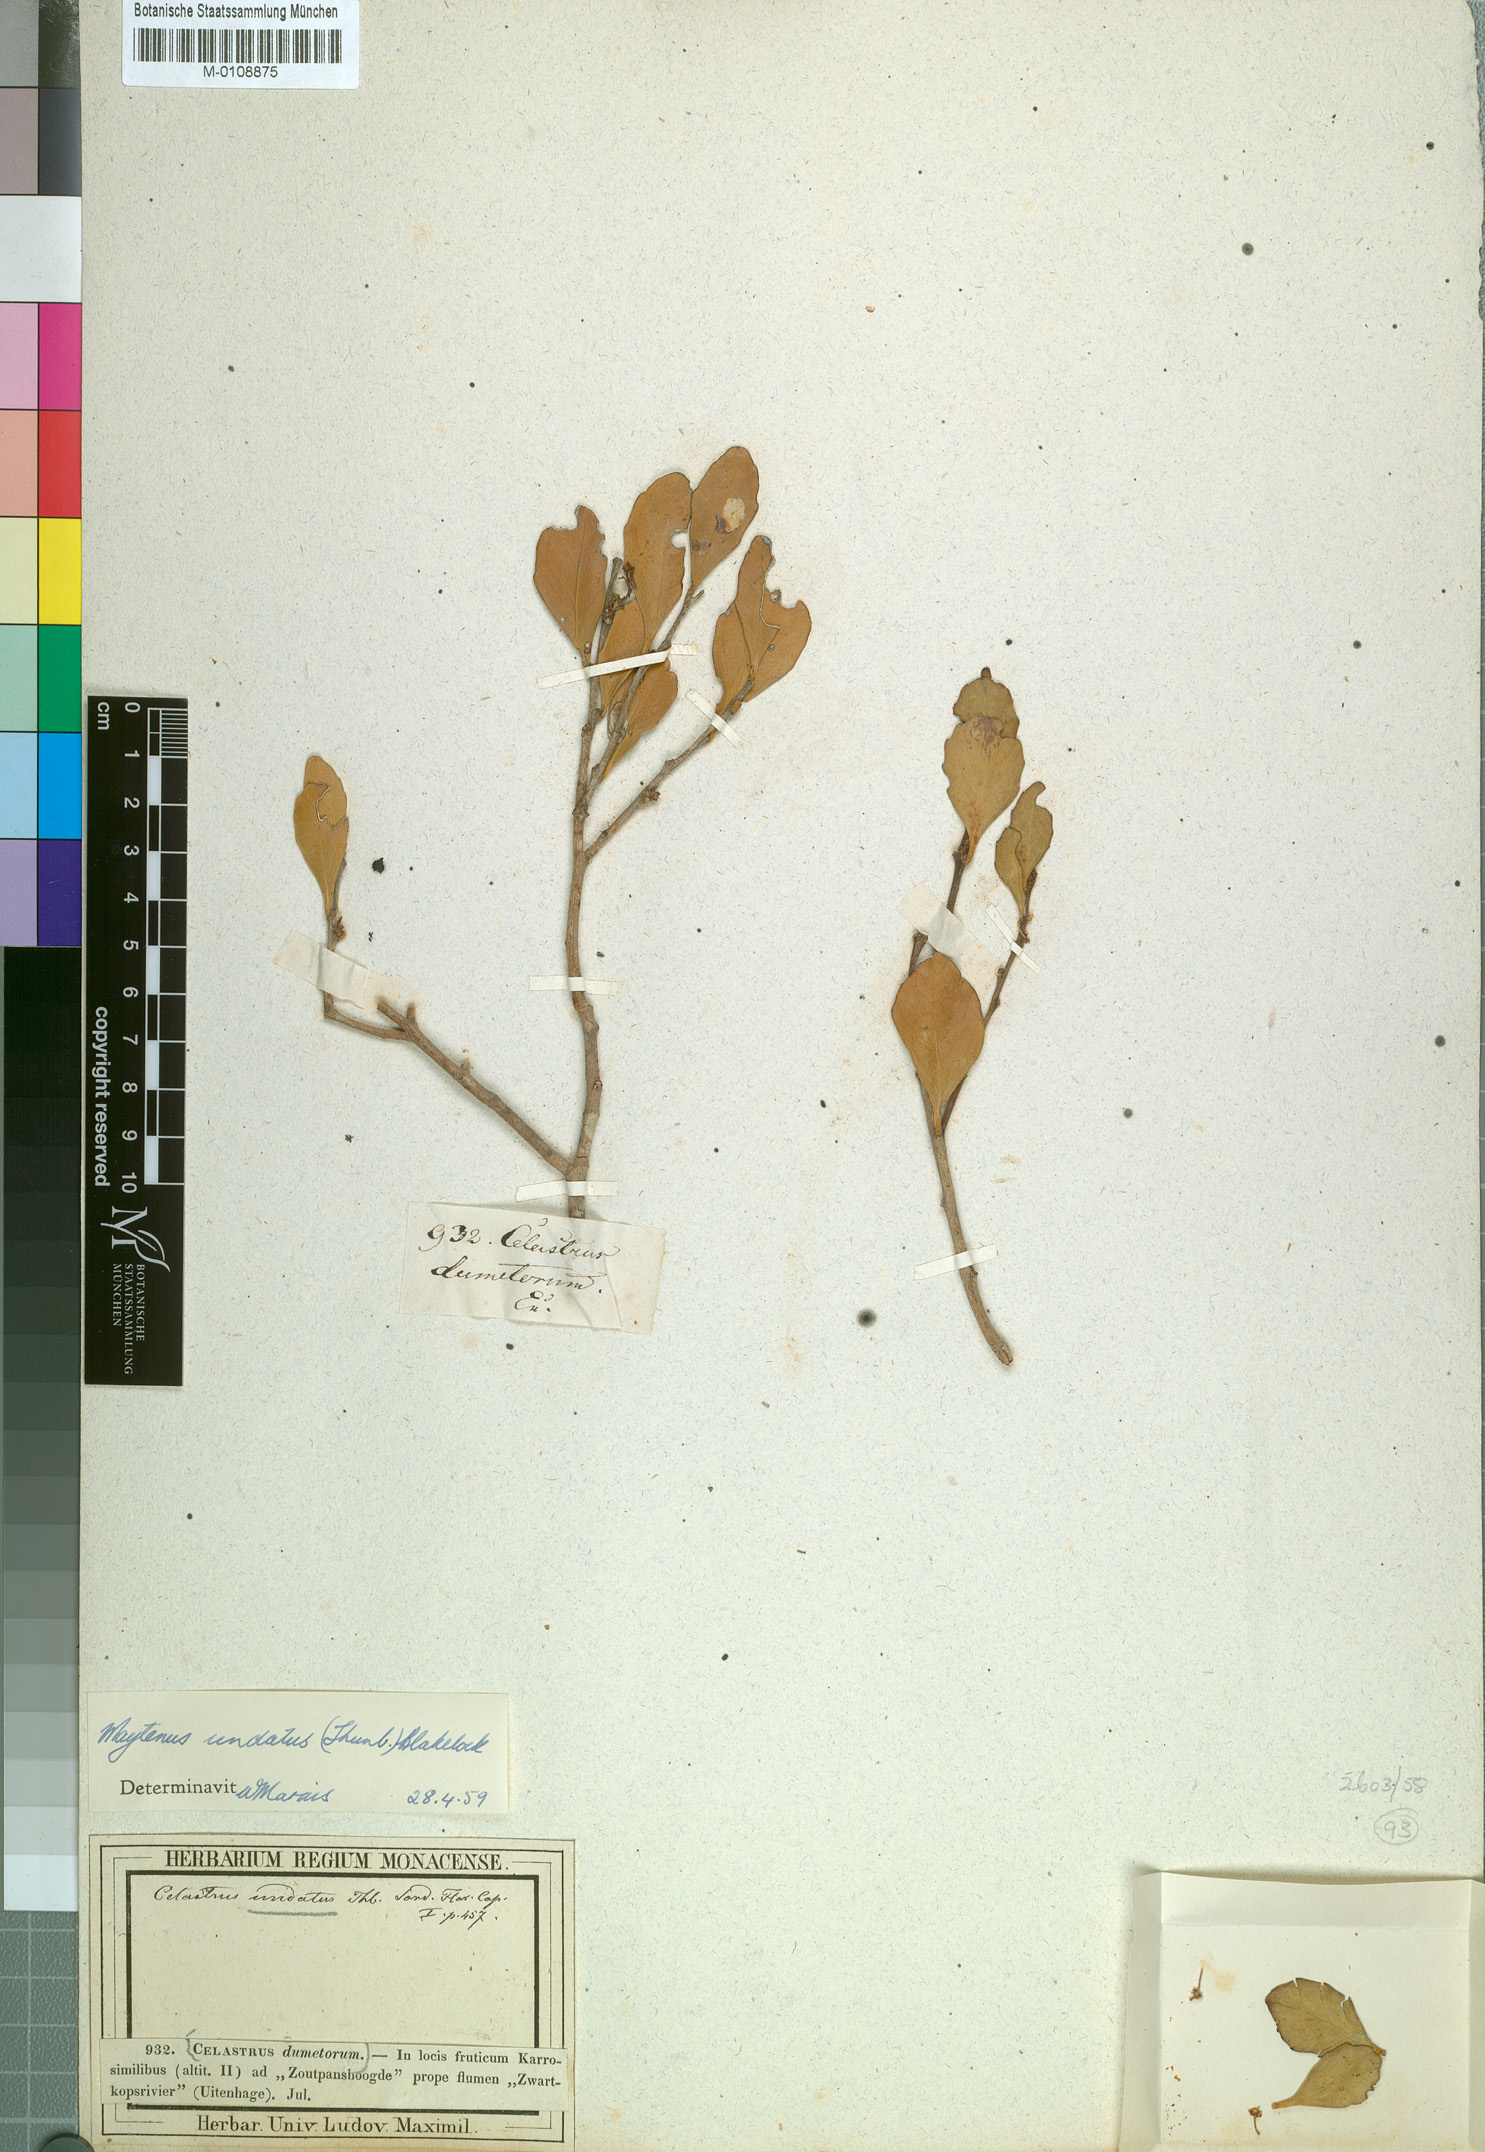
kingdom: Plantae
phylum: Tracheophyta
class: Magnoliopsida
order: Celastrales
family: Celastraceae
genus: Gymnosporia
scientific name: Gymnosporia undata
